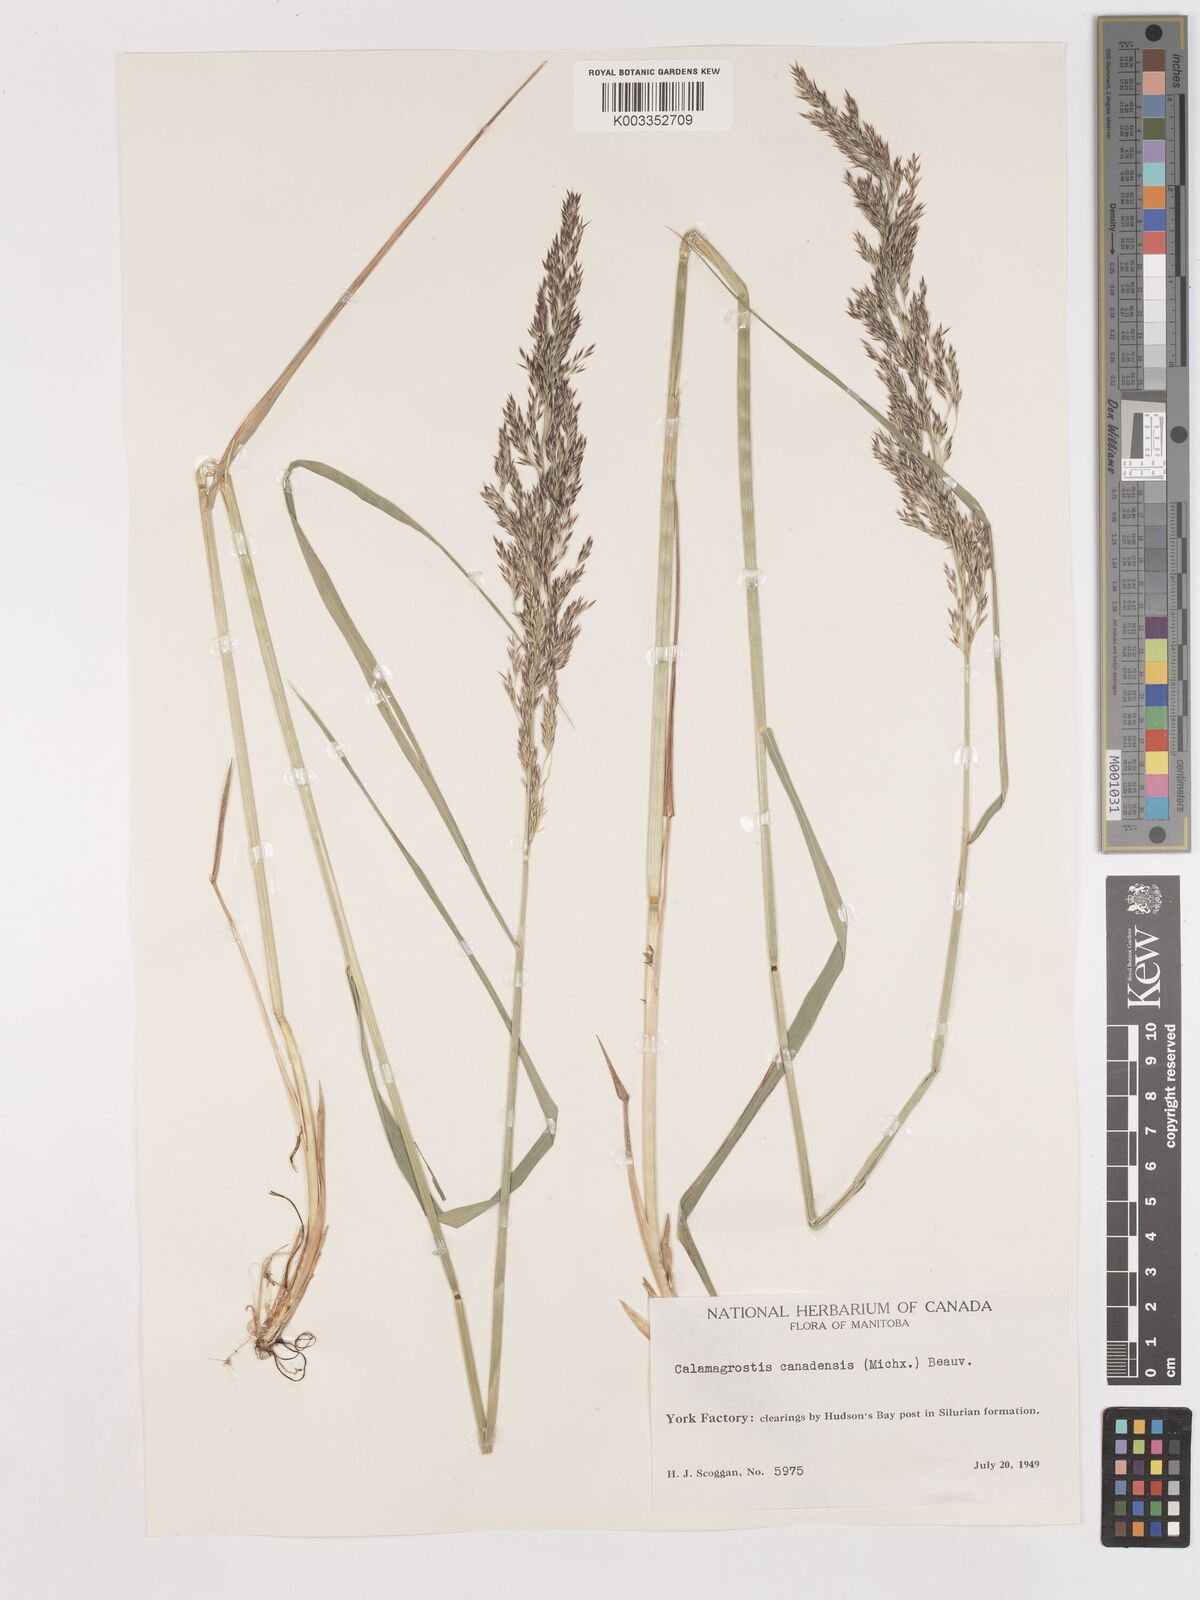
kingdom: Plantae
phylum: Tracheophyta
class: Liliopsida
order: Poales
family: Poaceae
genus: Calamagrostis
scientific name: Calamagrostis canadensis
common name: Canada bluejoint
